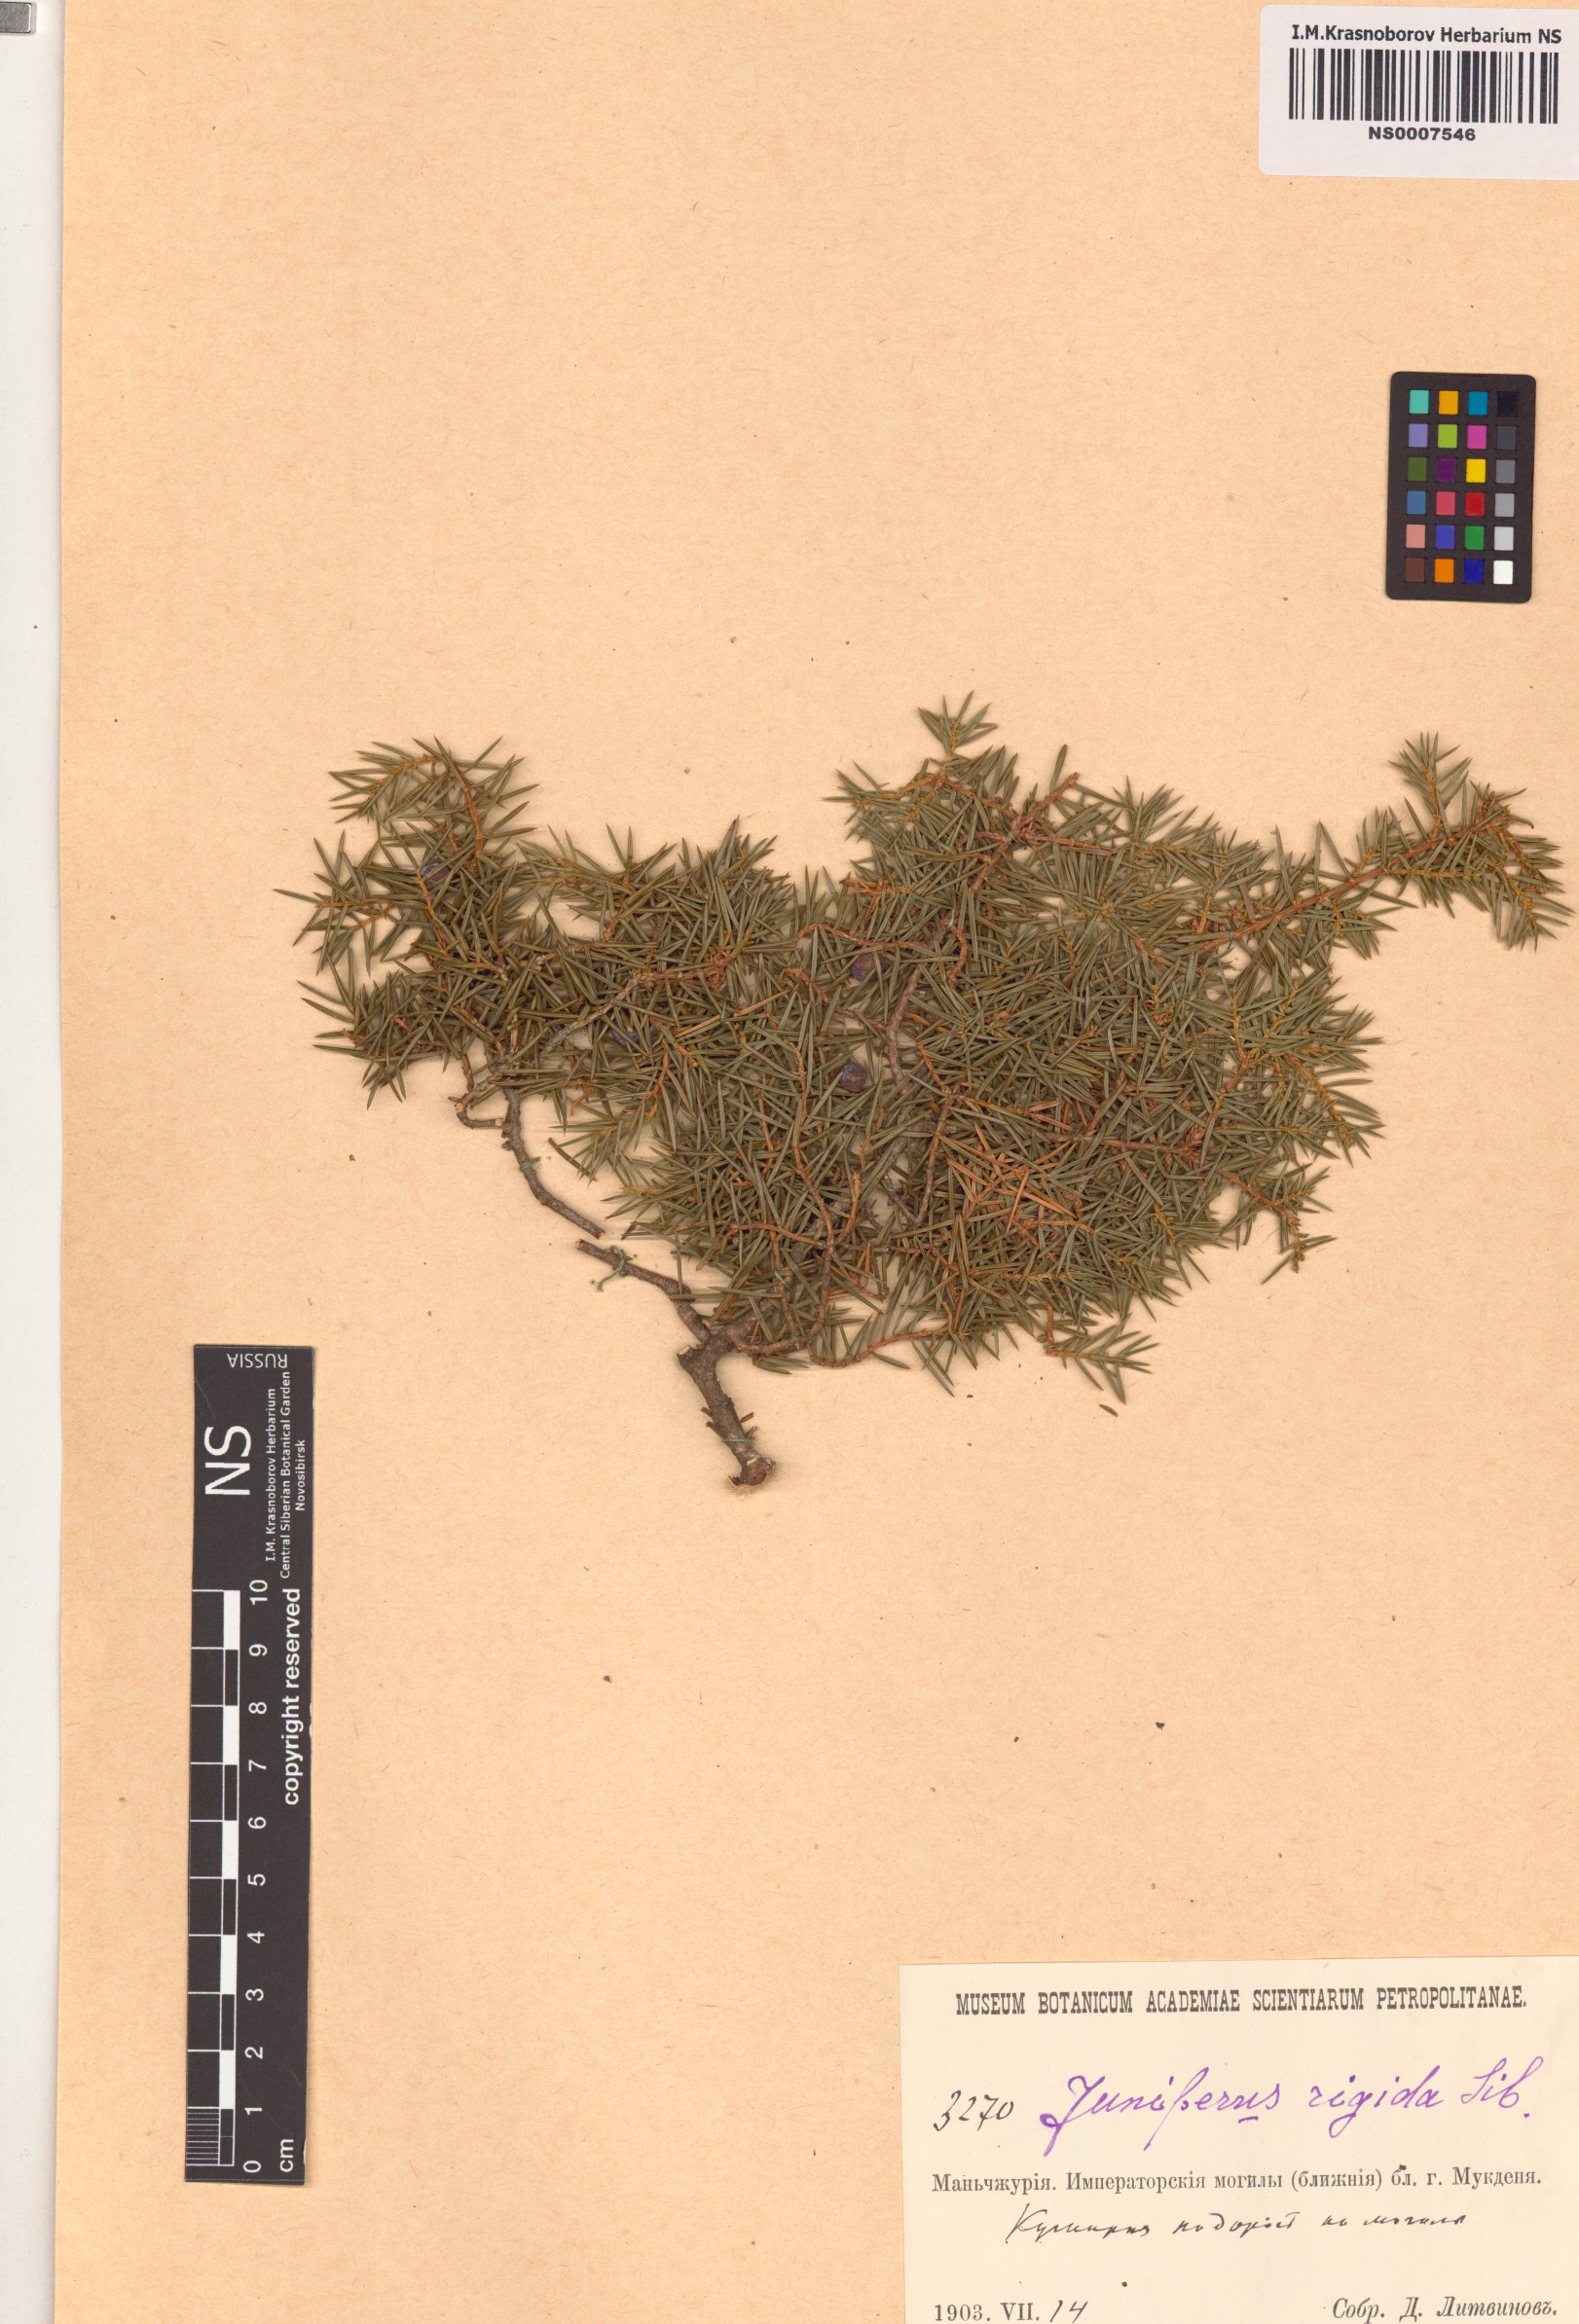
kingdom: Plantae
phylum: Tracheophyta
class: Pinopsida
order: Pinales
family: Cupressaceae
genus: Juniperus
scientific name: Juniperus rigida
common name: Needle juniper
